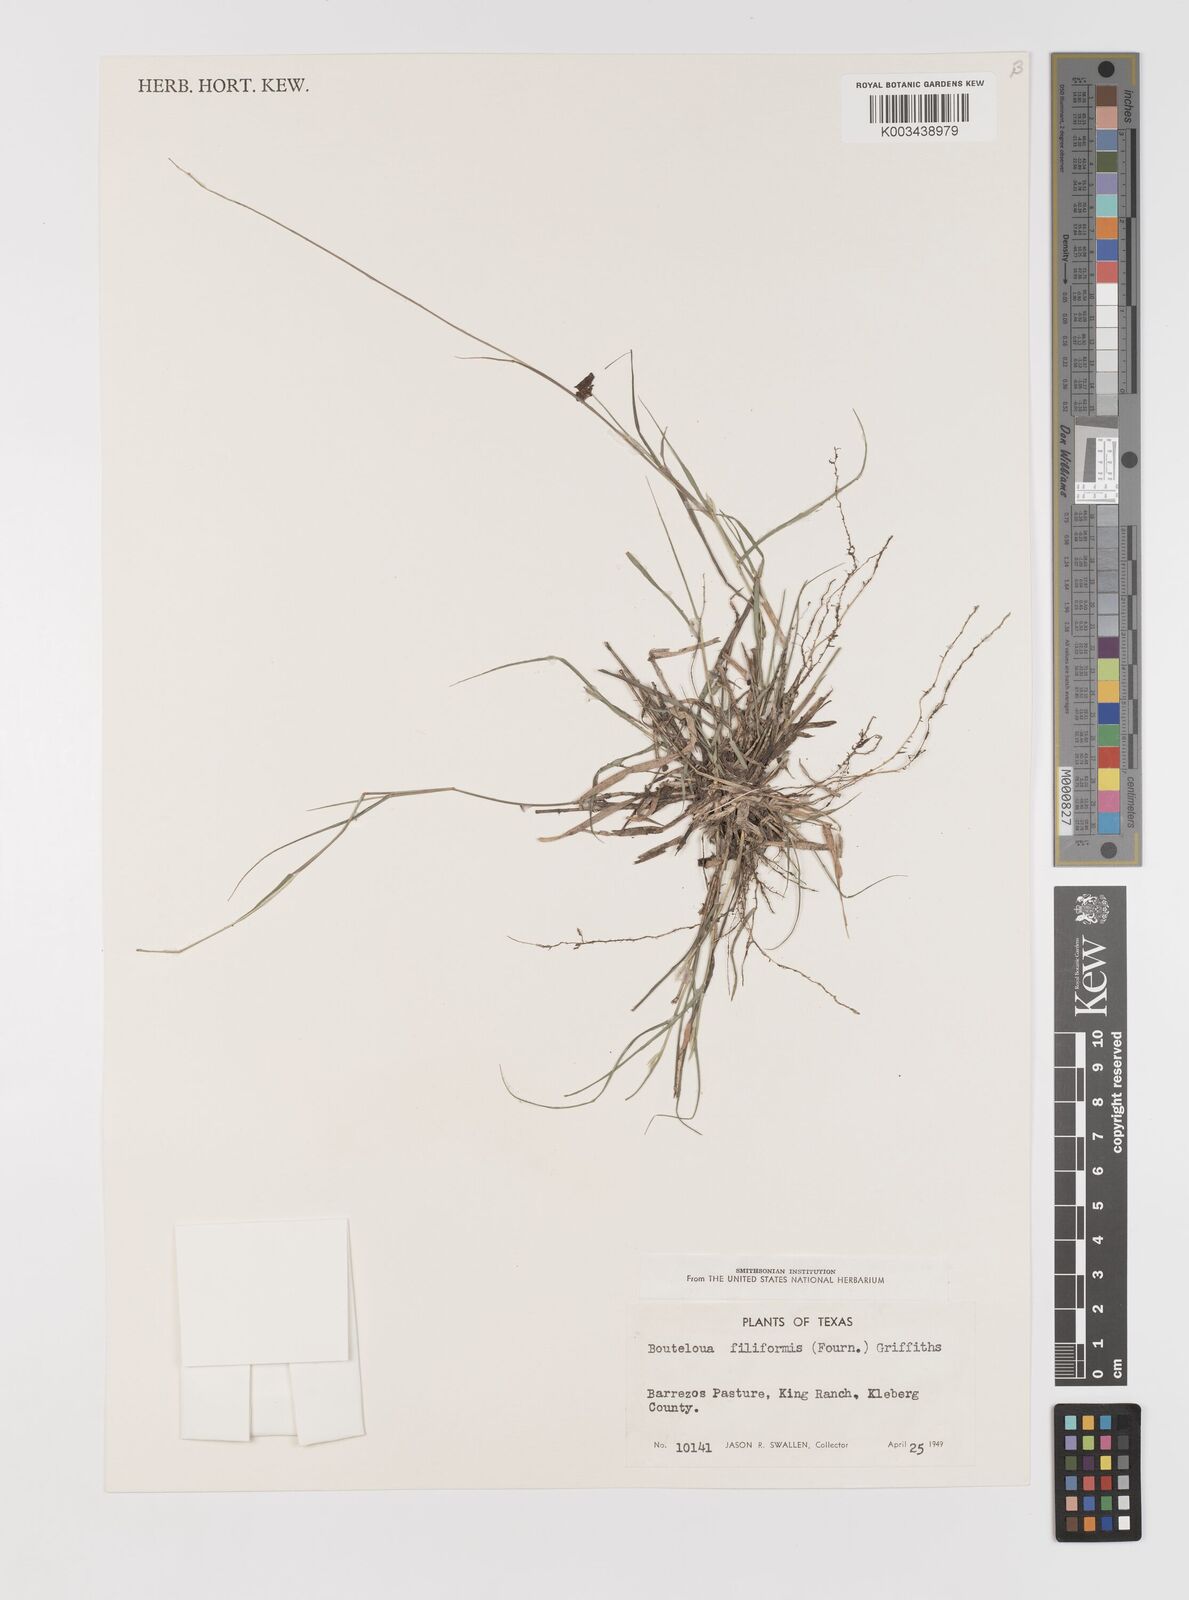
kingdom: Plantae
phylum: Tracheophyta
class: Liliopsida
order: Poales
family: Poaceae
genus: Bouteloua
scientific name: Bouteloua repens
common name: Slender grama
